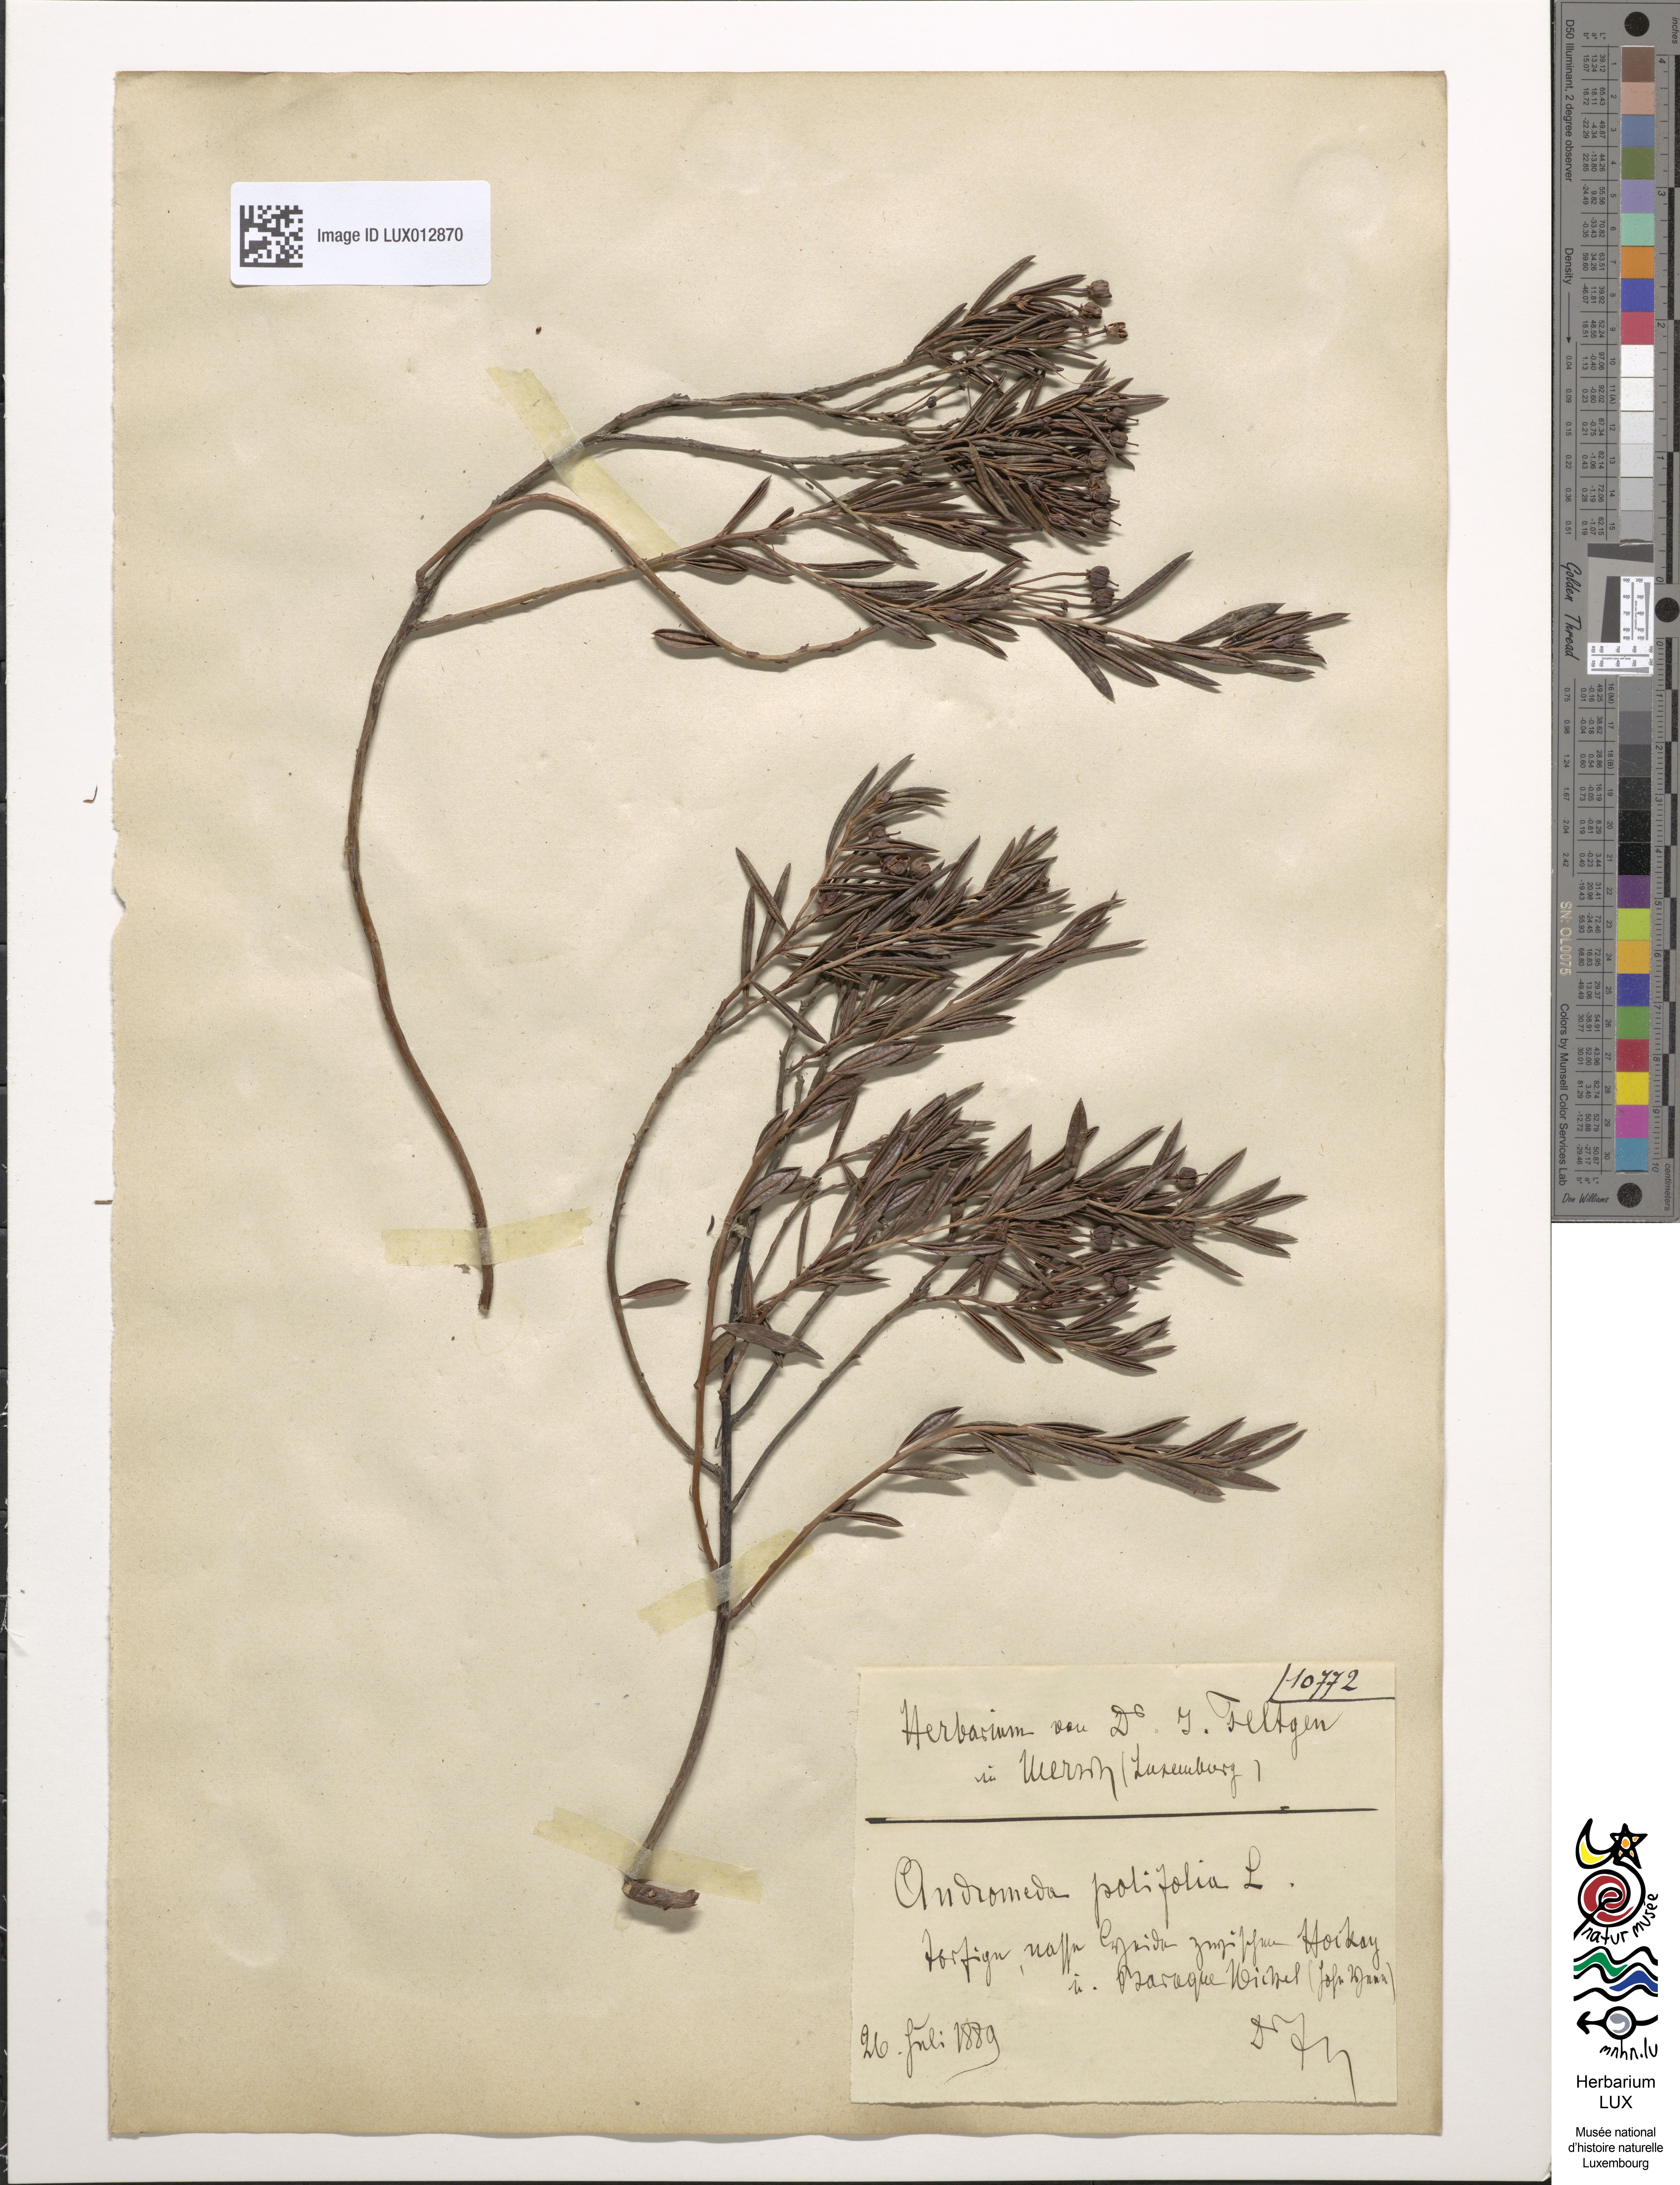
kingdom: Plantae
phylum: Tracheophyta
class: Magnoliopsida
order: Ericales
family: Ericaceae
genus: Andromeda
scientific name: Andromeda polifolia
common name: Bog-rosemary
